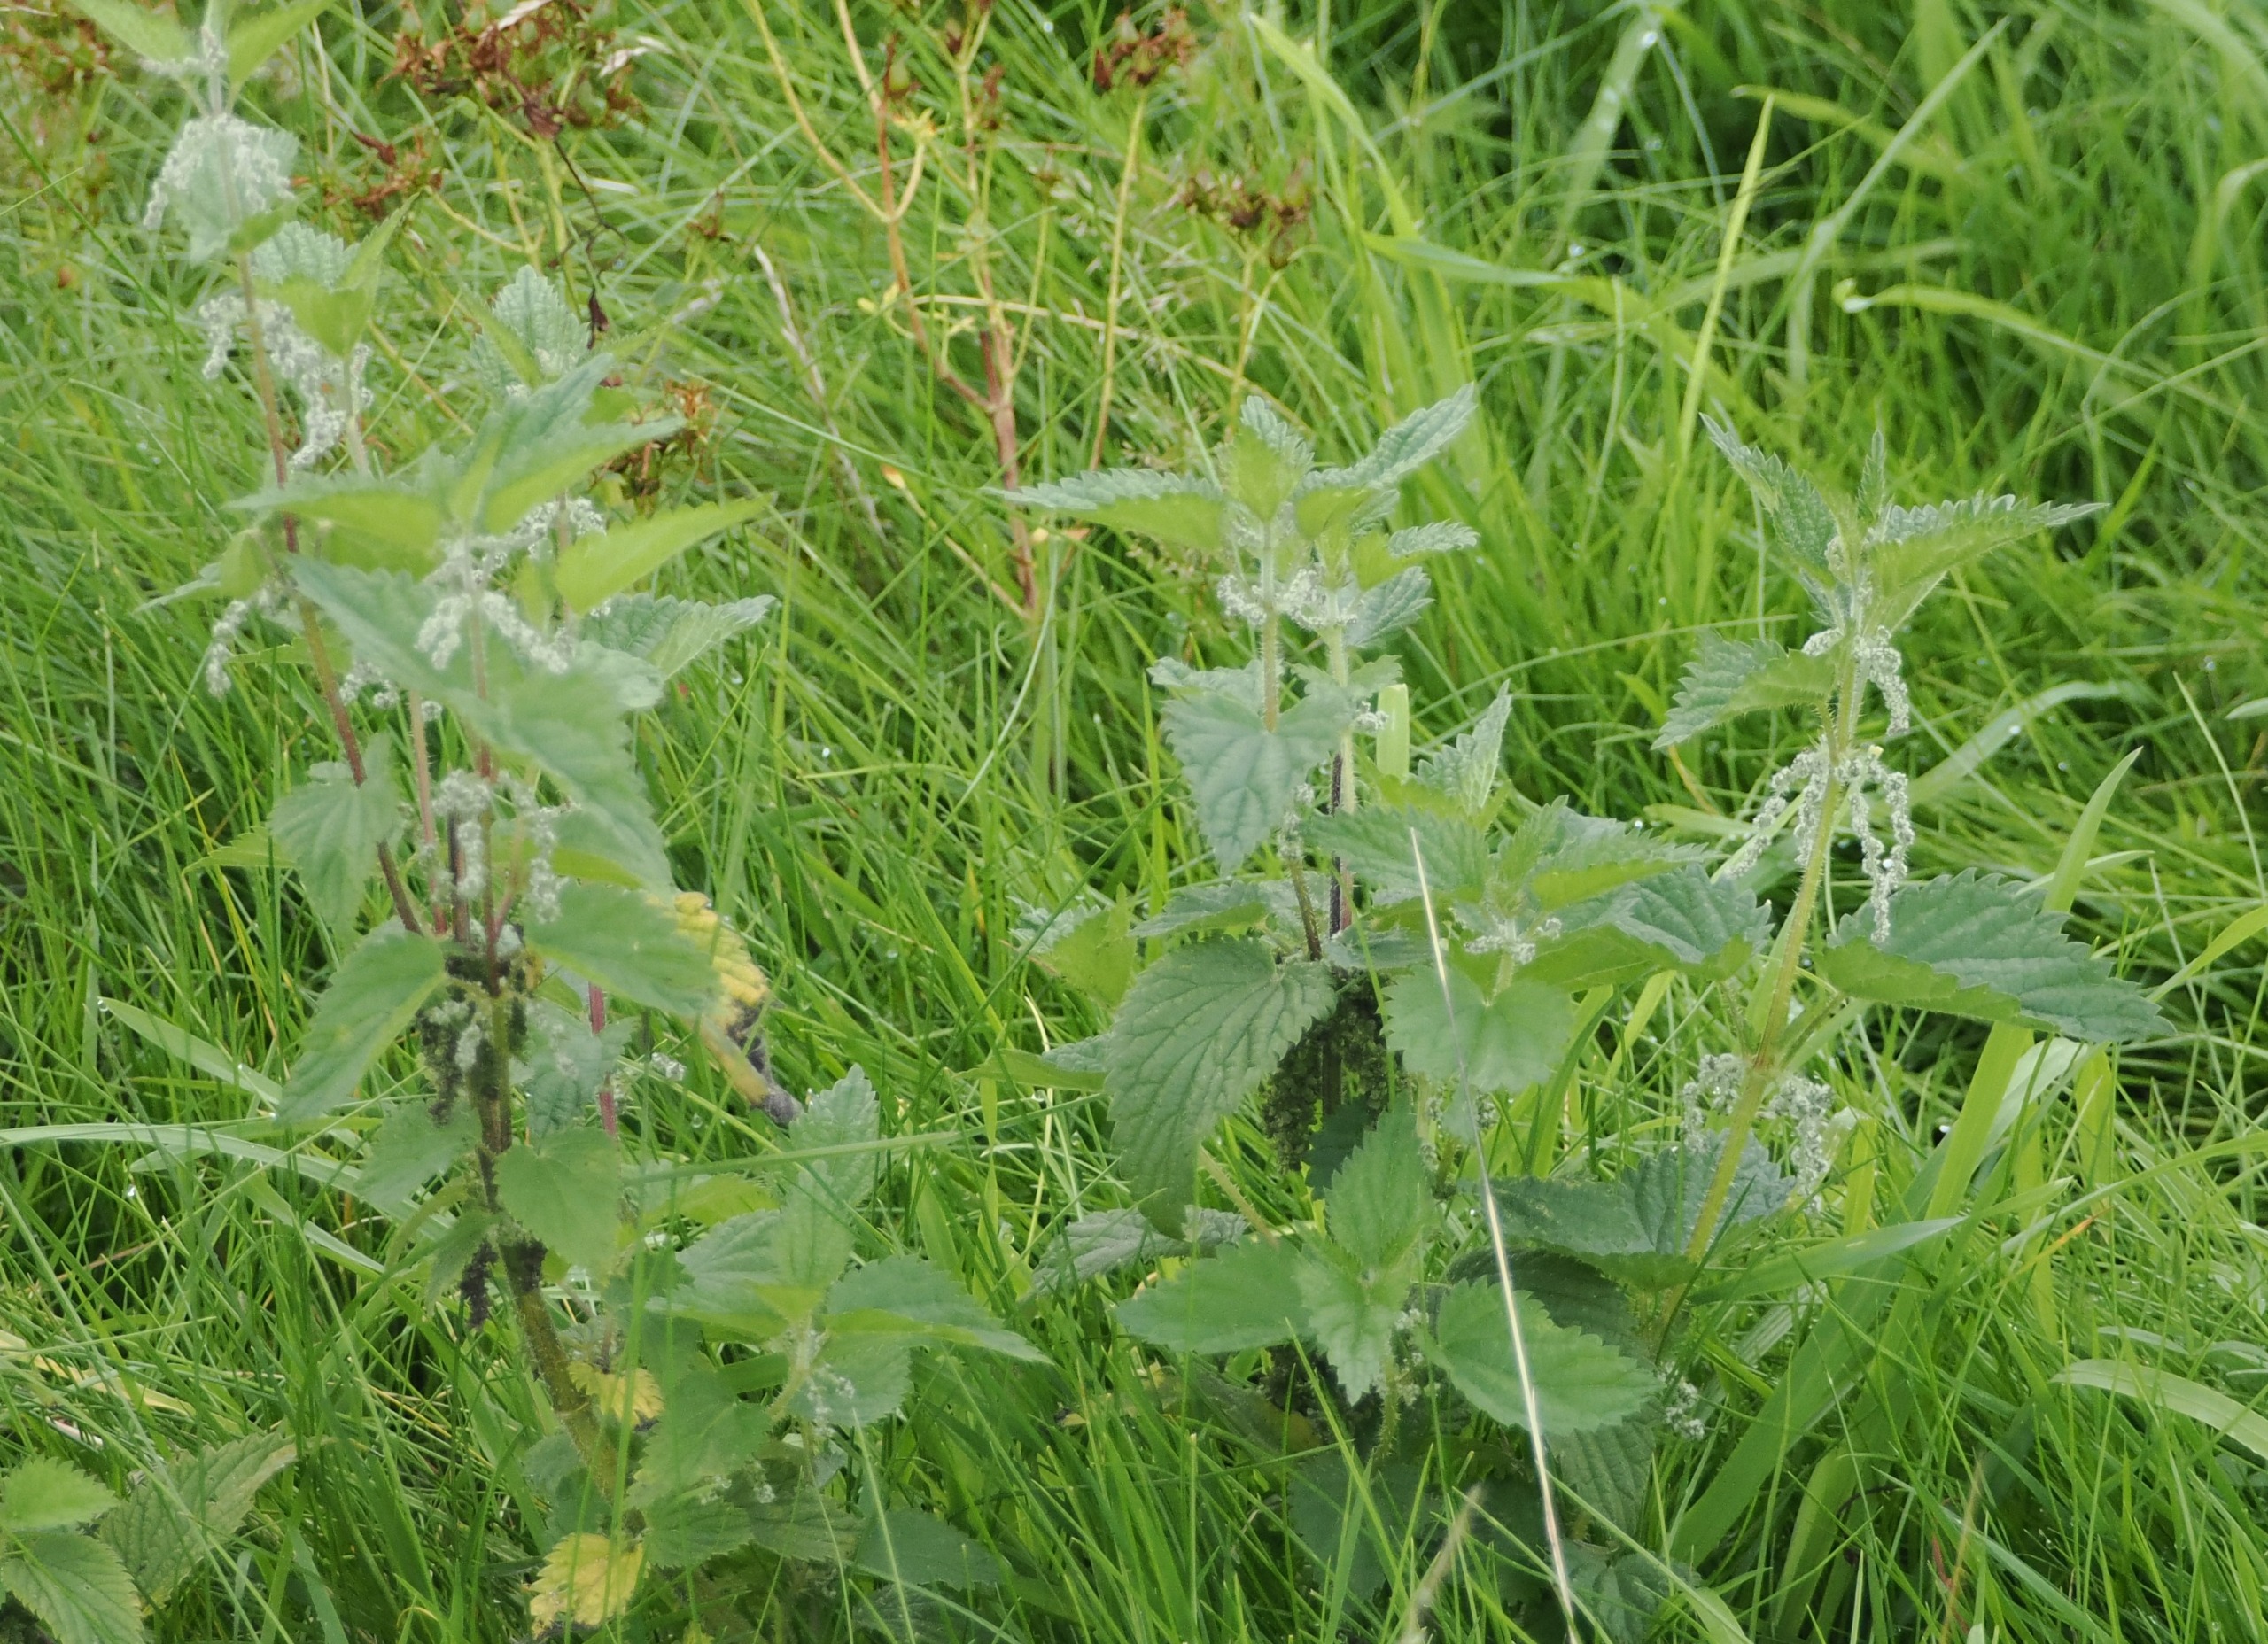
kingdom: Plantae
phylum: Tracheophyta
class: Magnoliopsida
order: Rosales
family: Urticaceae
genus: Urtica
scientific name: Urtica dioica
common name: Stor nælde
